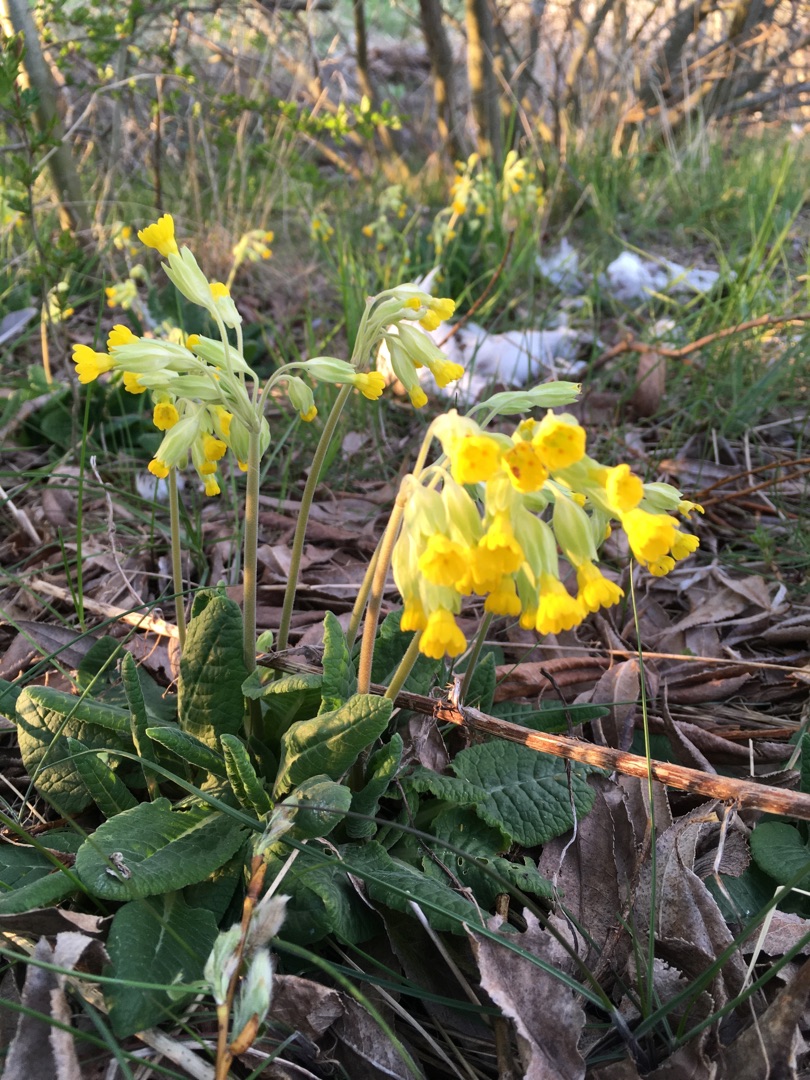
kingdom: Plantae
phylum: Tracheophyta
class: Magnoliopsida
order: Ericales
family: Primulaceae
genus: Primula
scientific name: Primula veris
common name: Hulkravet kodriver
